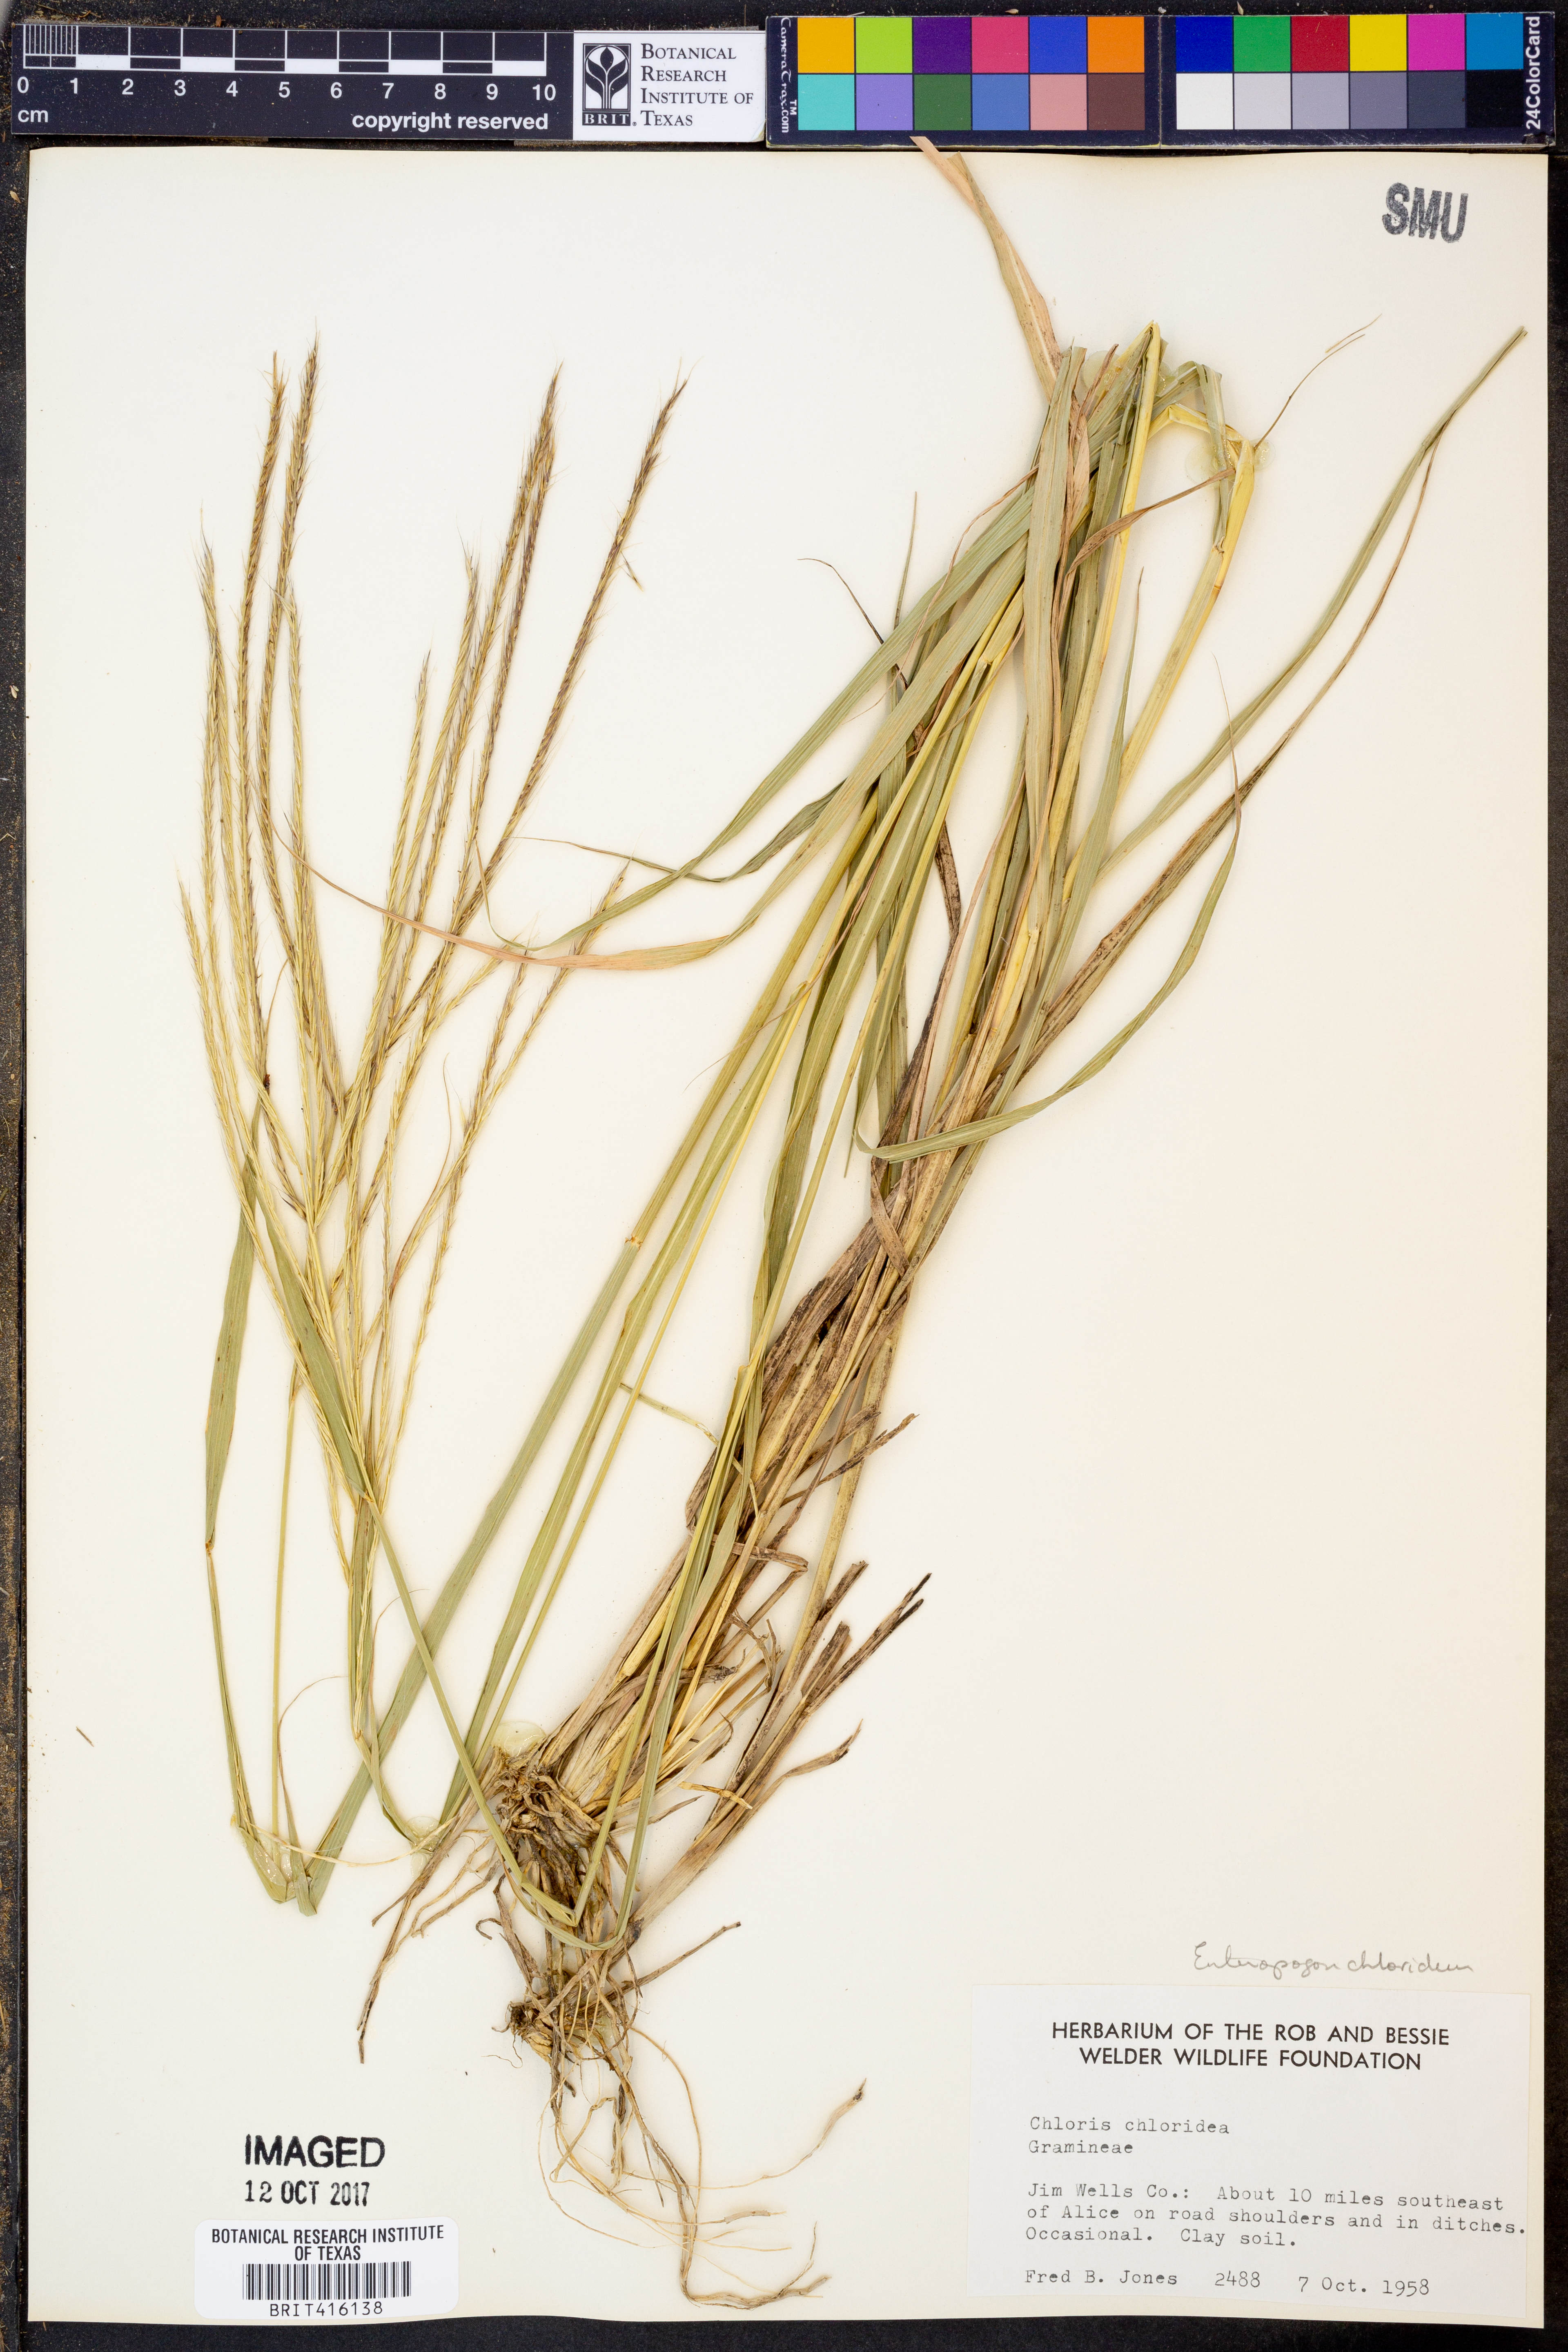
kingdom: Plantae
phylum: Tracheophyta
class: Liliopsida
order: Poales
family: Poaceae
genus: Tetrapogon
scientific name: Tetrapogon chlorideus
